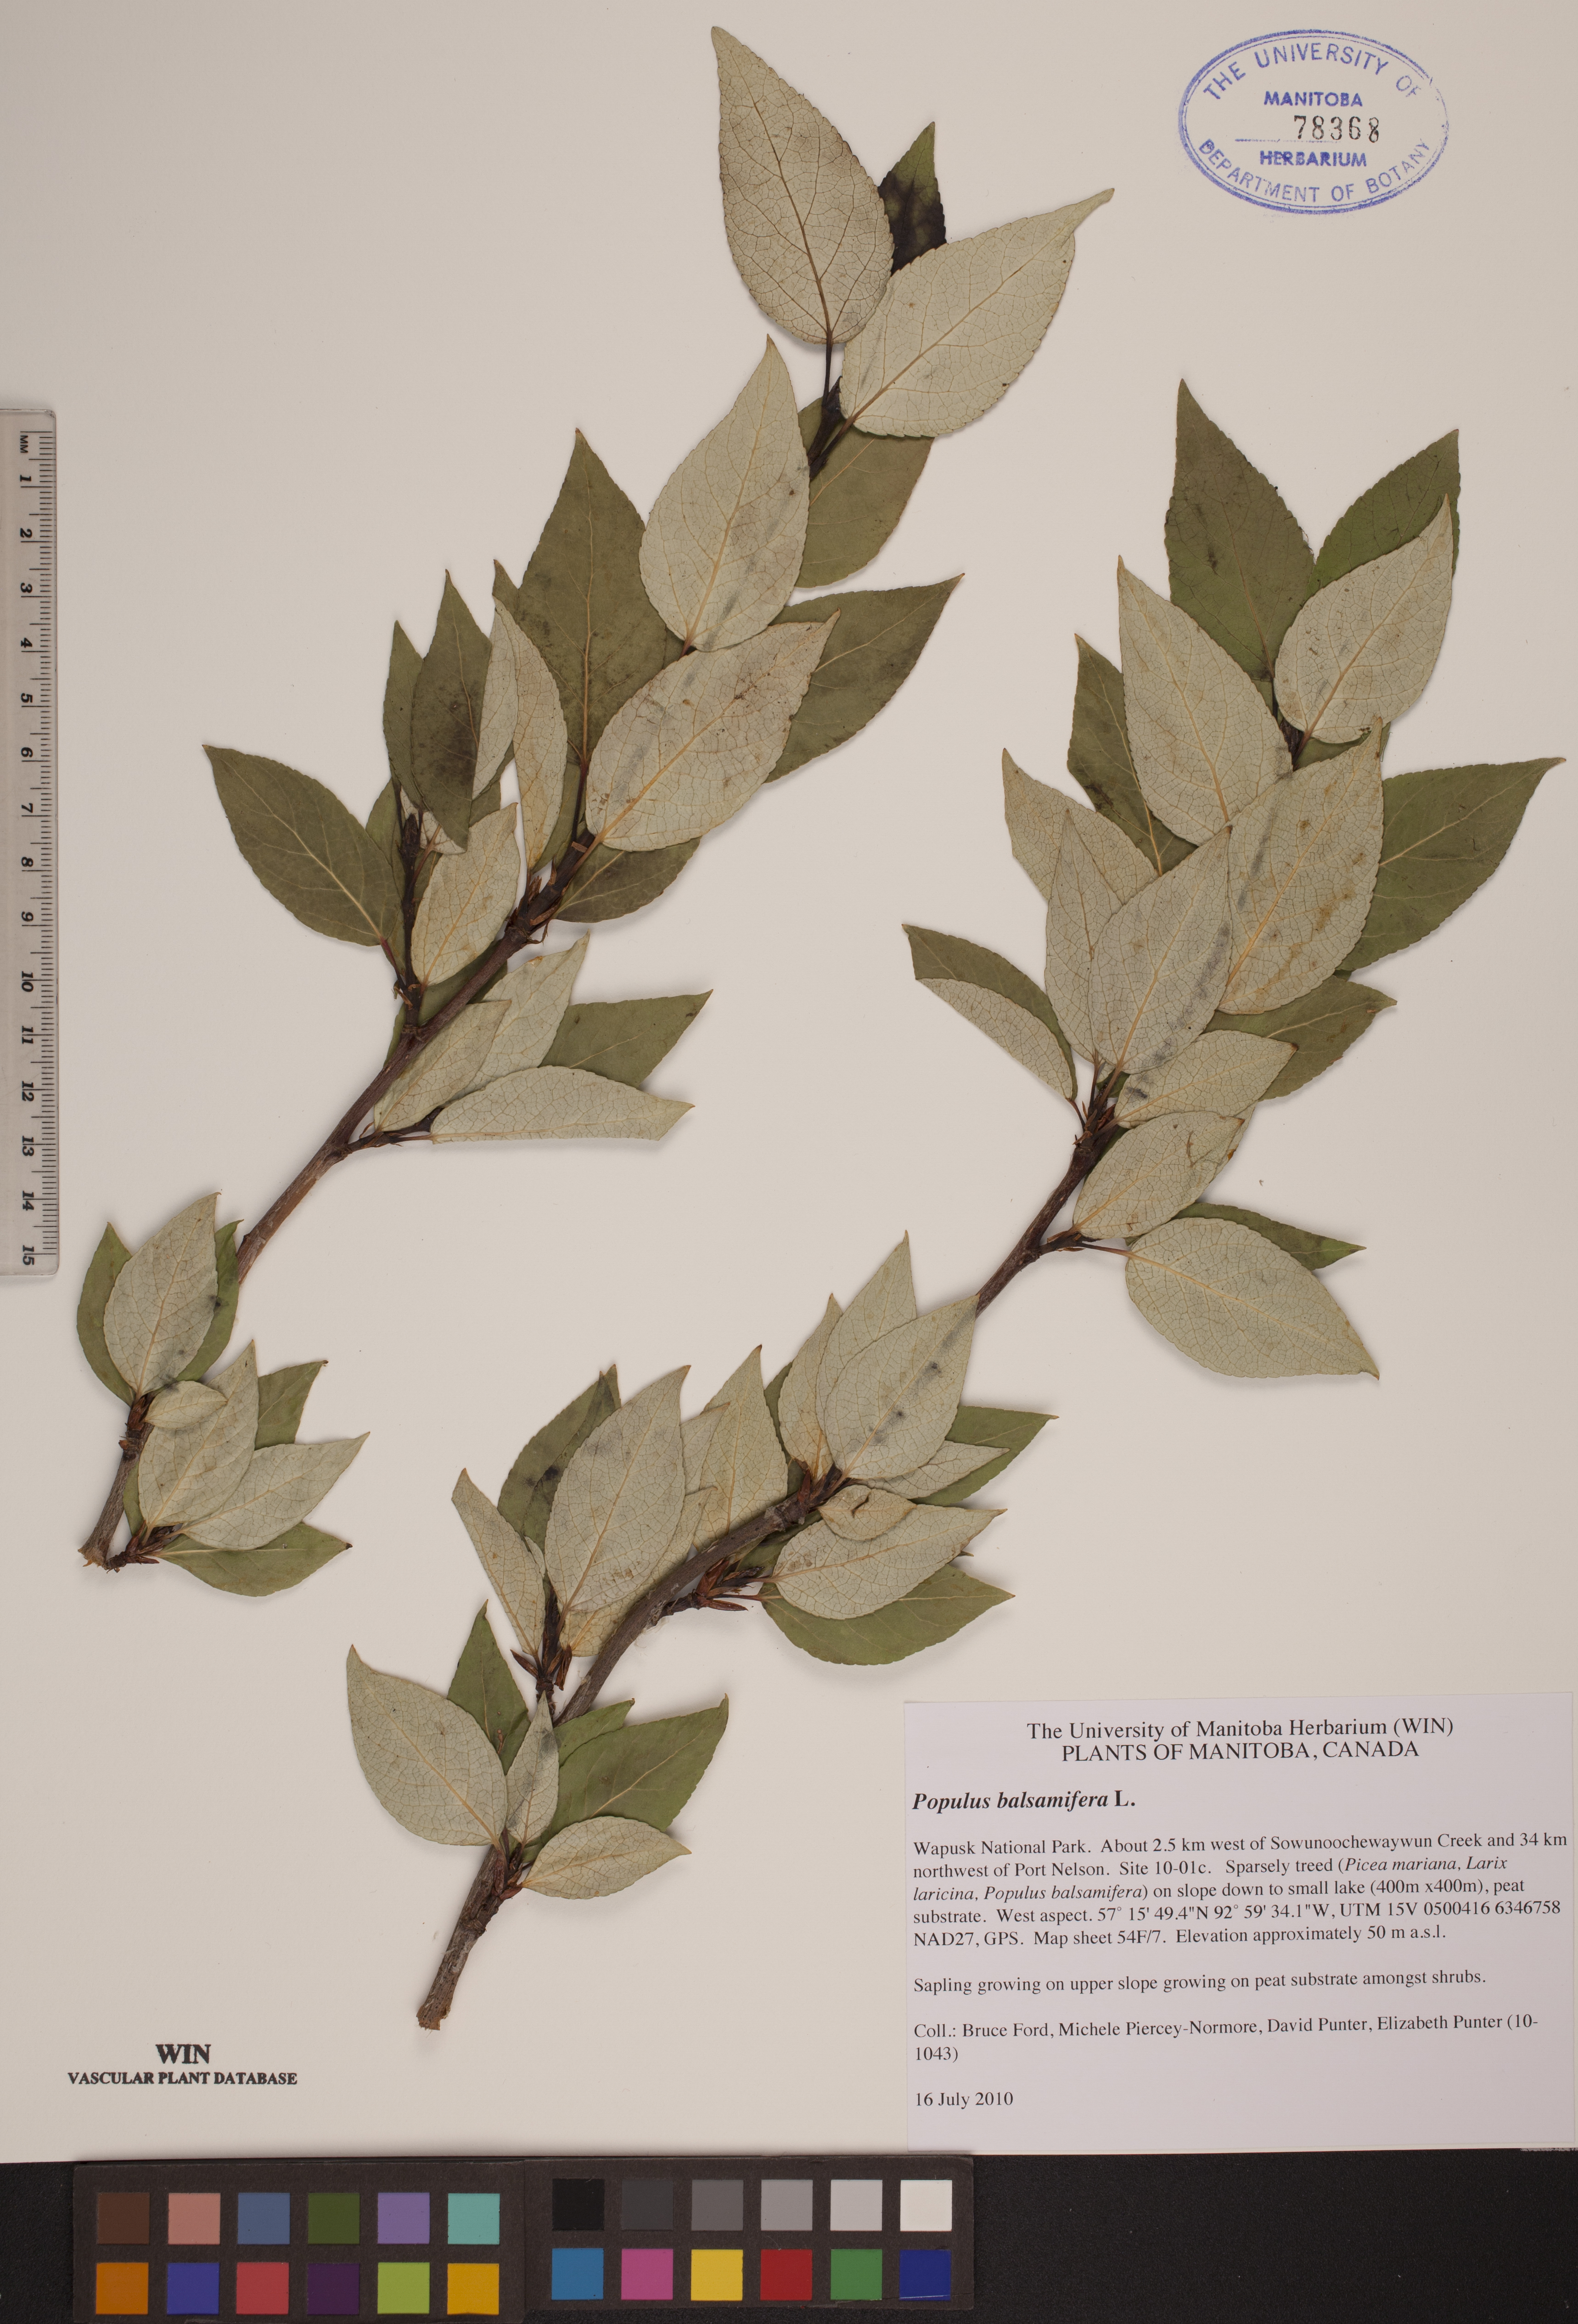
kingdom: Plantae
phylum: Tracheophyta
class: Magnoliopsida
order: Malpighiales
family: Salicaceae
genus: Populus
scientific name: Populus balsamifera
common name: Balsam poplar
